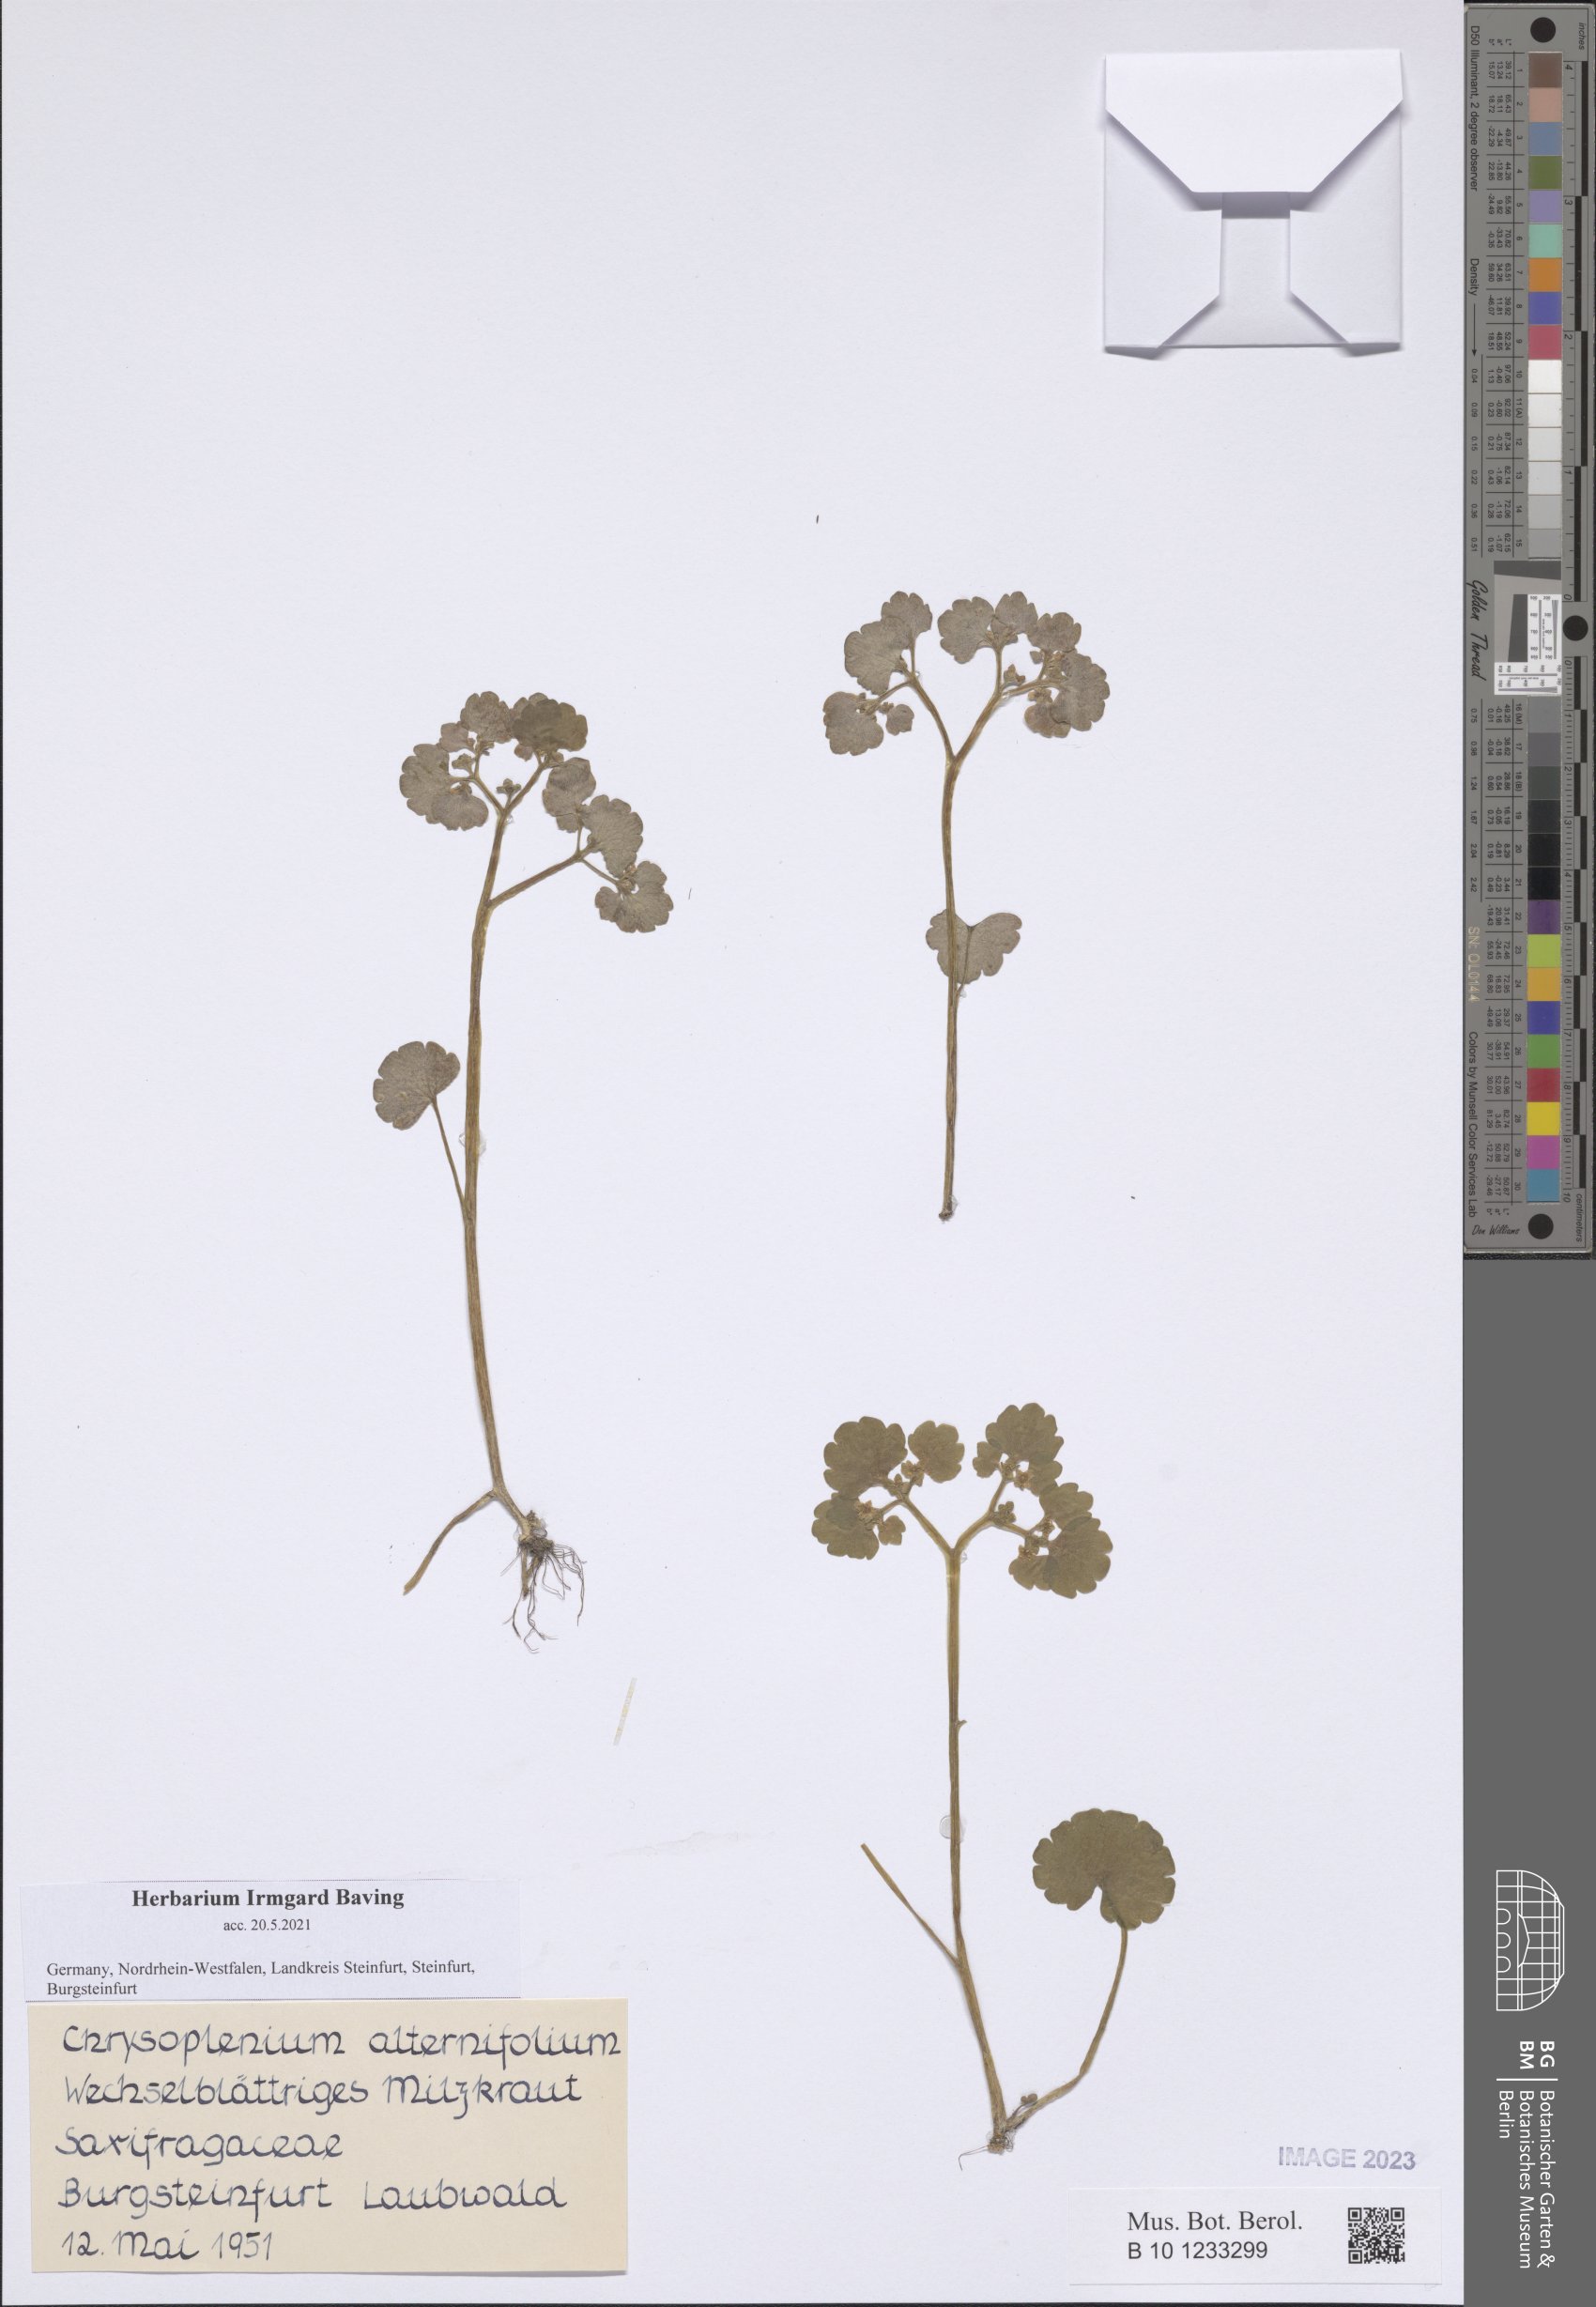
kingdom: Plantae
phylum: Tracheophyta
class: Magnoliopsida
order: Saxifragales
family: Saxifragaceae
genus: Chrysosplenium
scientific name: Chrysosplenium alternifolium
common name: Alternate-leaved golden-saxifrage
